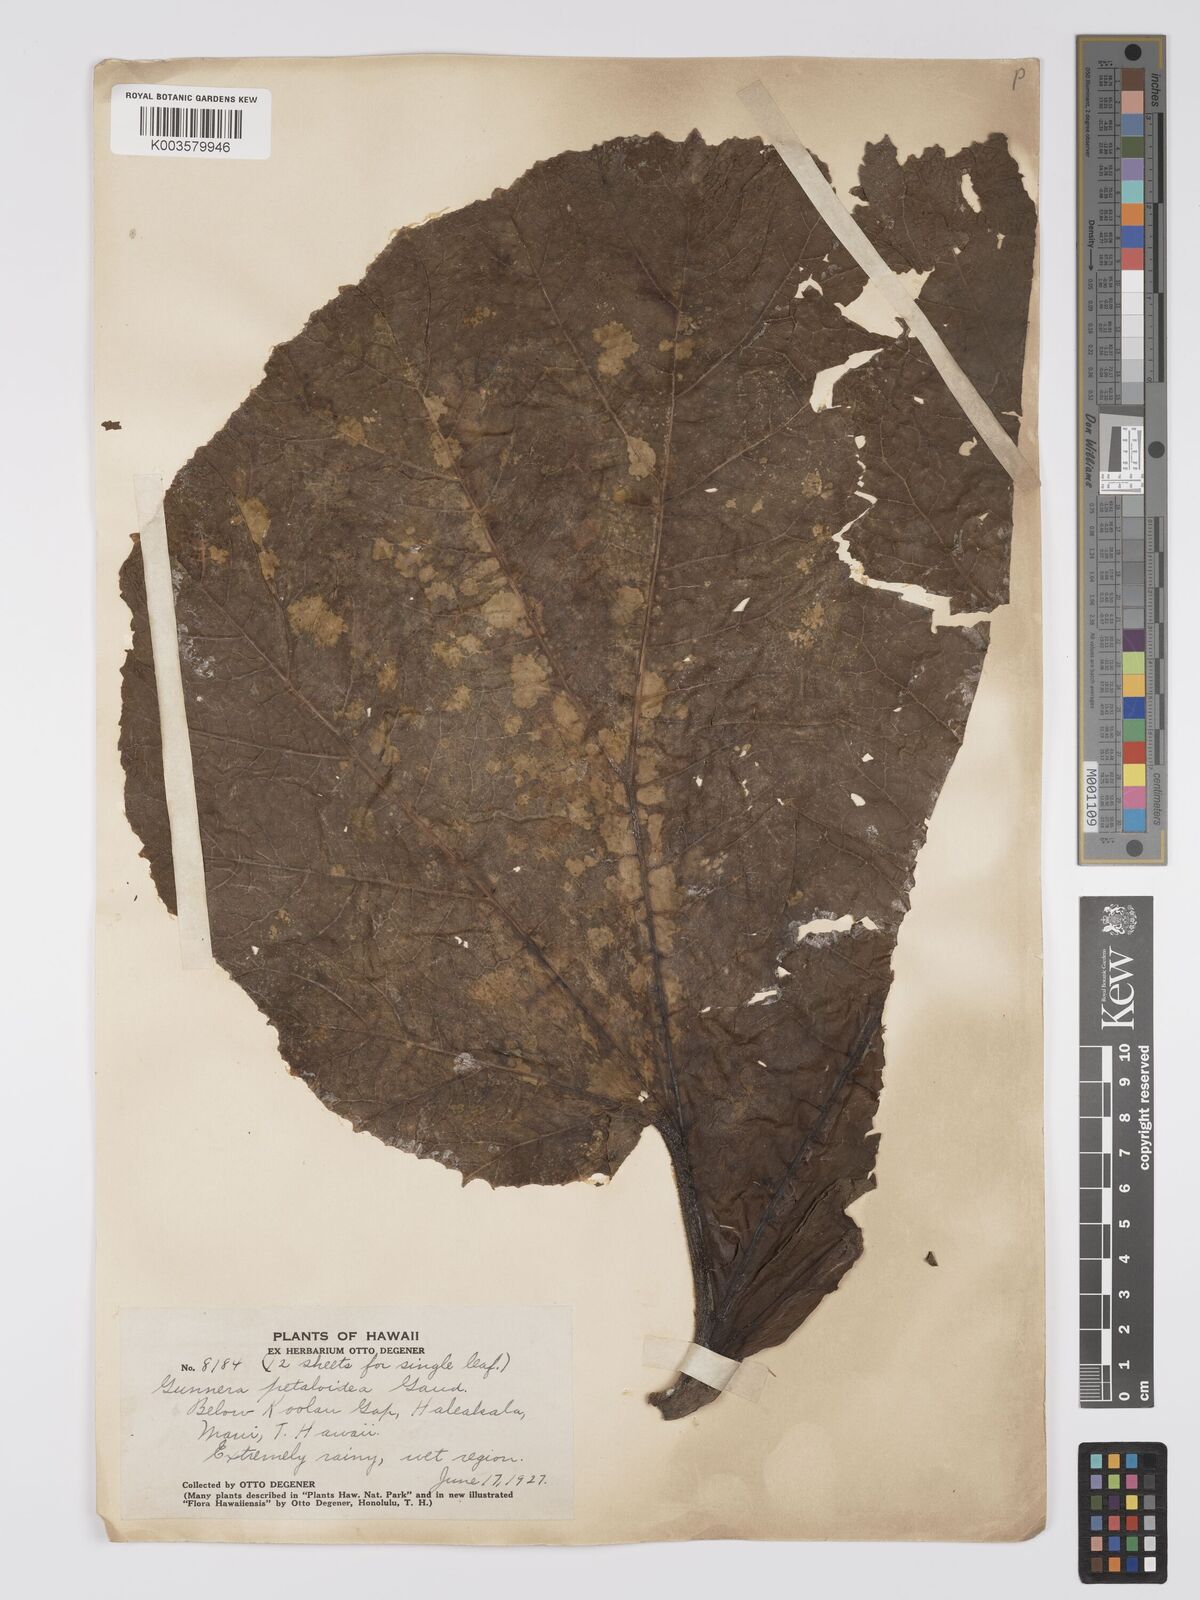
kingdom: Plantae
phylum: Tracheophyta
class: Magnoliopsida
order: Gunnerales
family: Gunneraceae
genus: Gunnera
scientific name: Gunnera petaloidea
